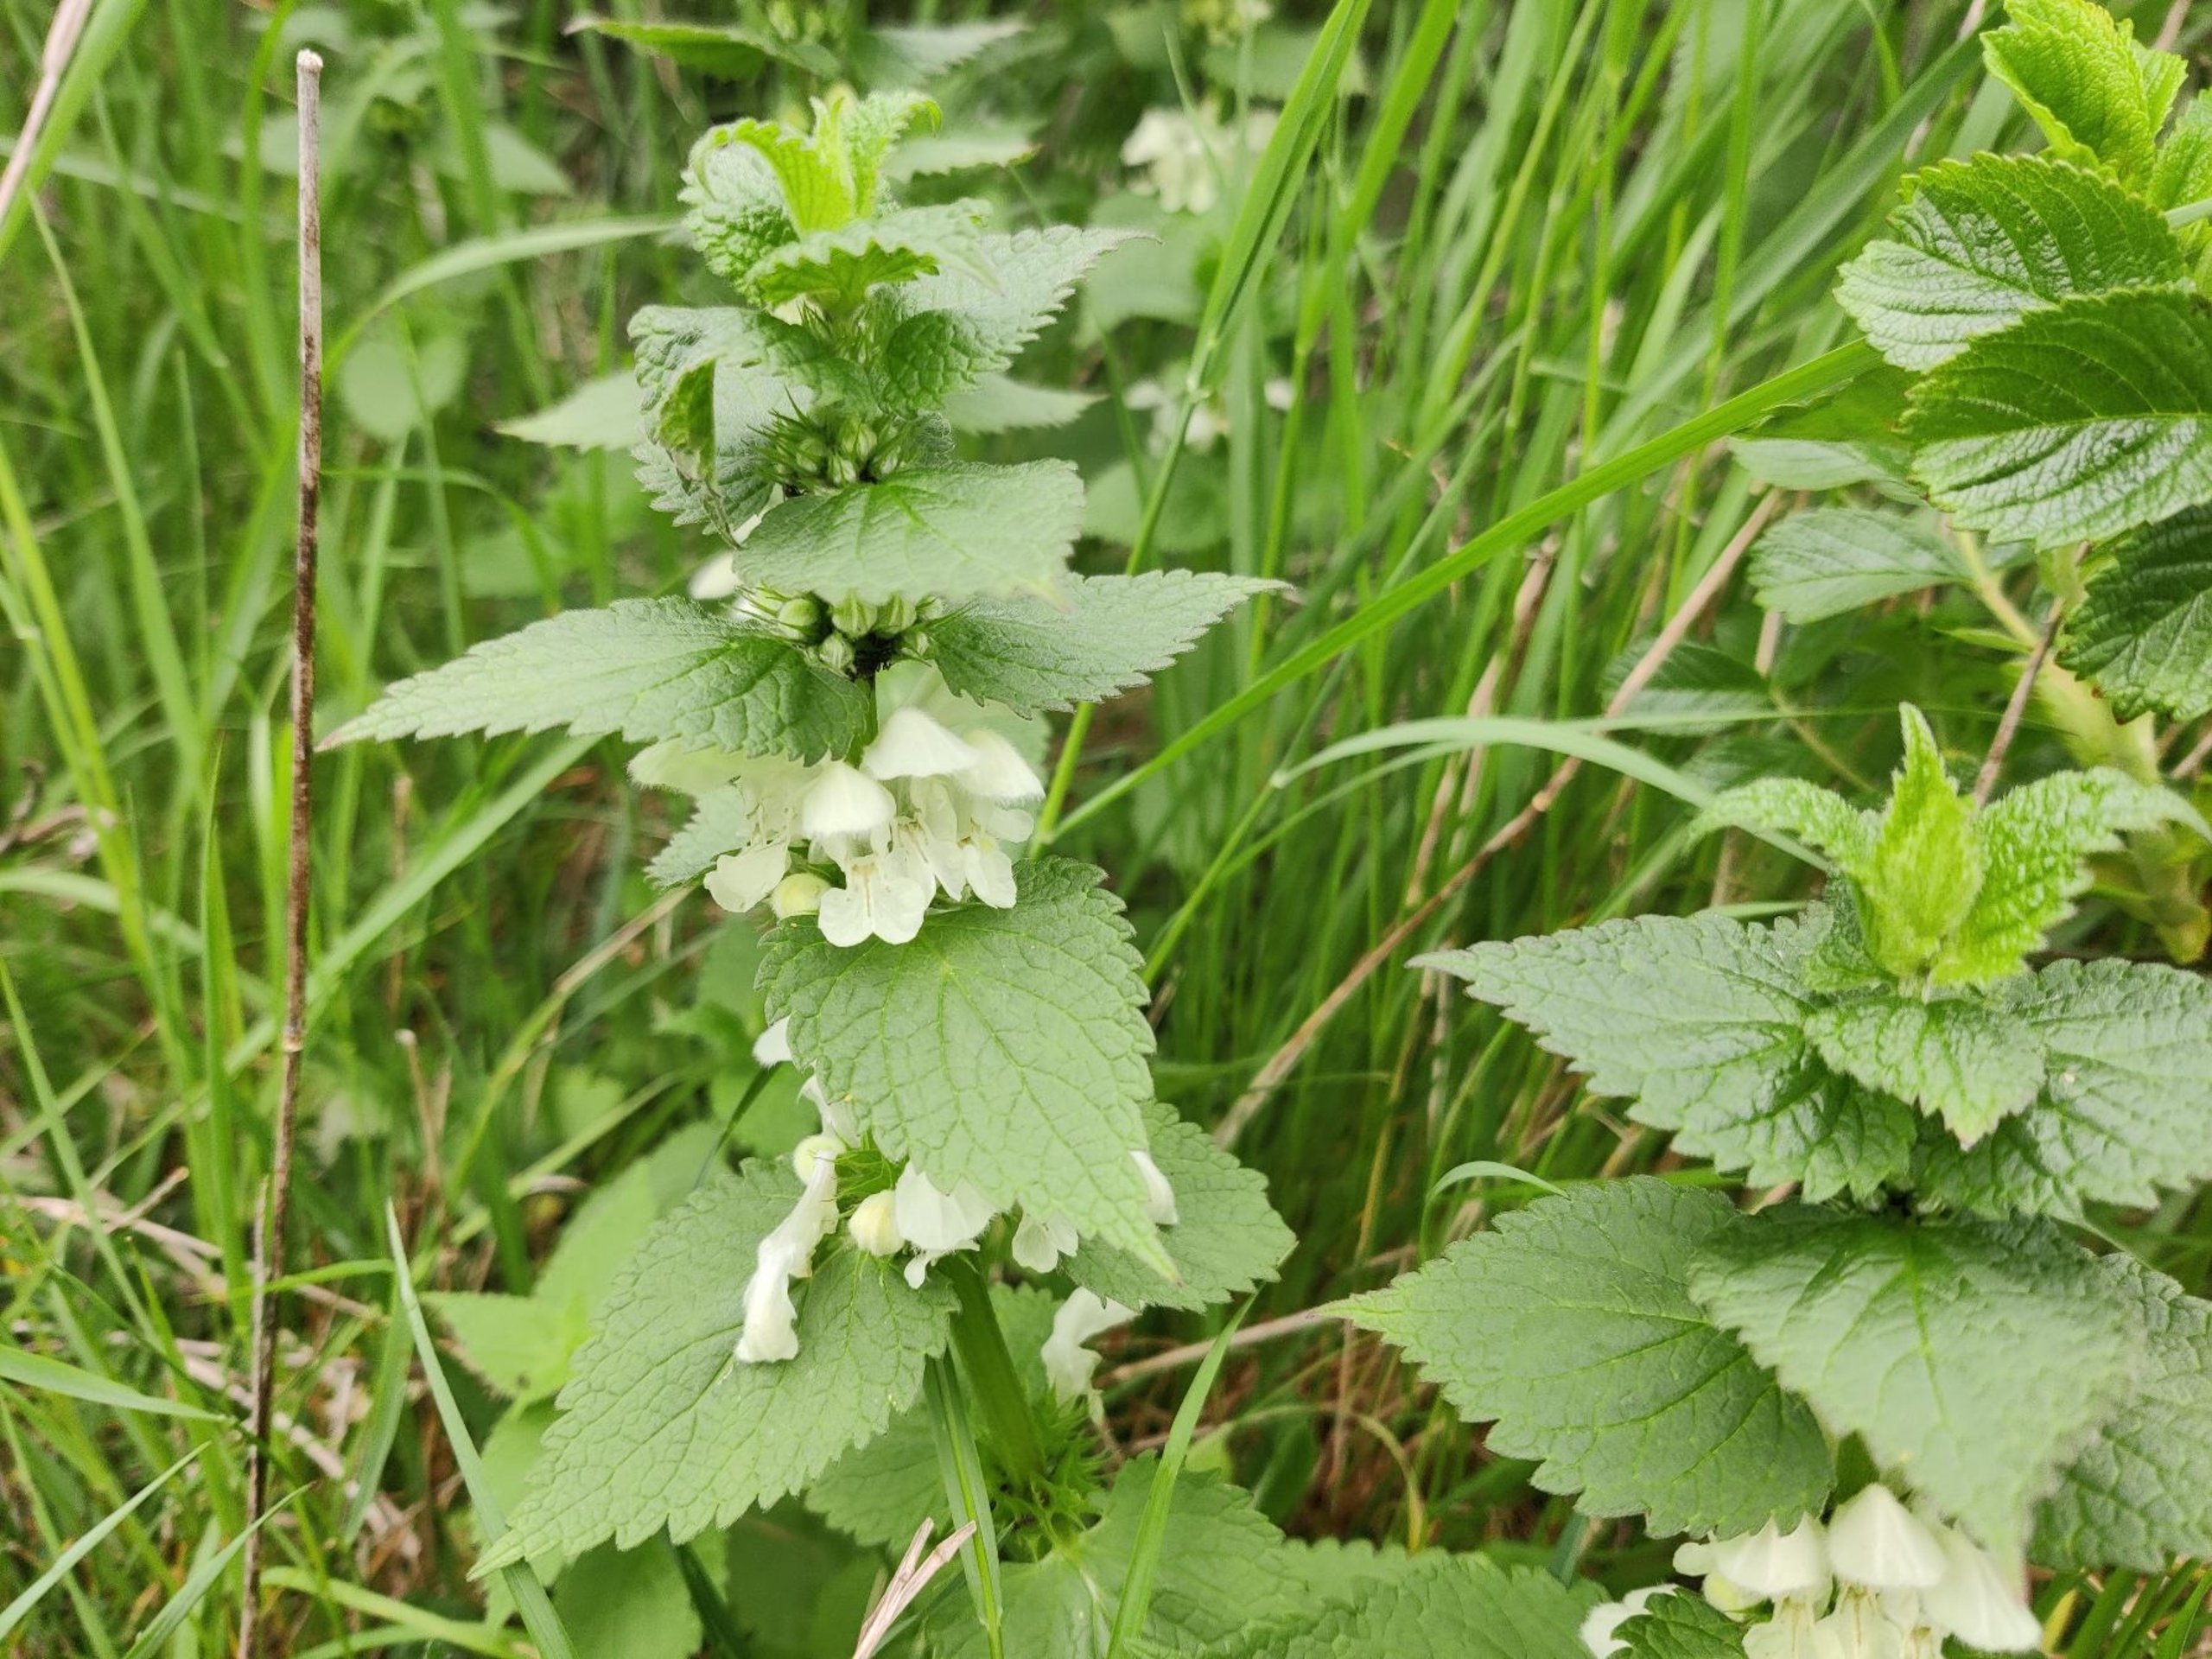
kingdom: Plantae
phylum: Tracheophyta
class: Magnoliopsida
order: Lamiales
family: Lamiaceae
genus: Lamium
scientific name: Lamium album
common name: Døvnælde
